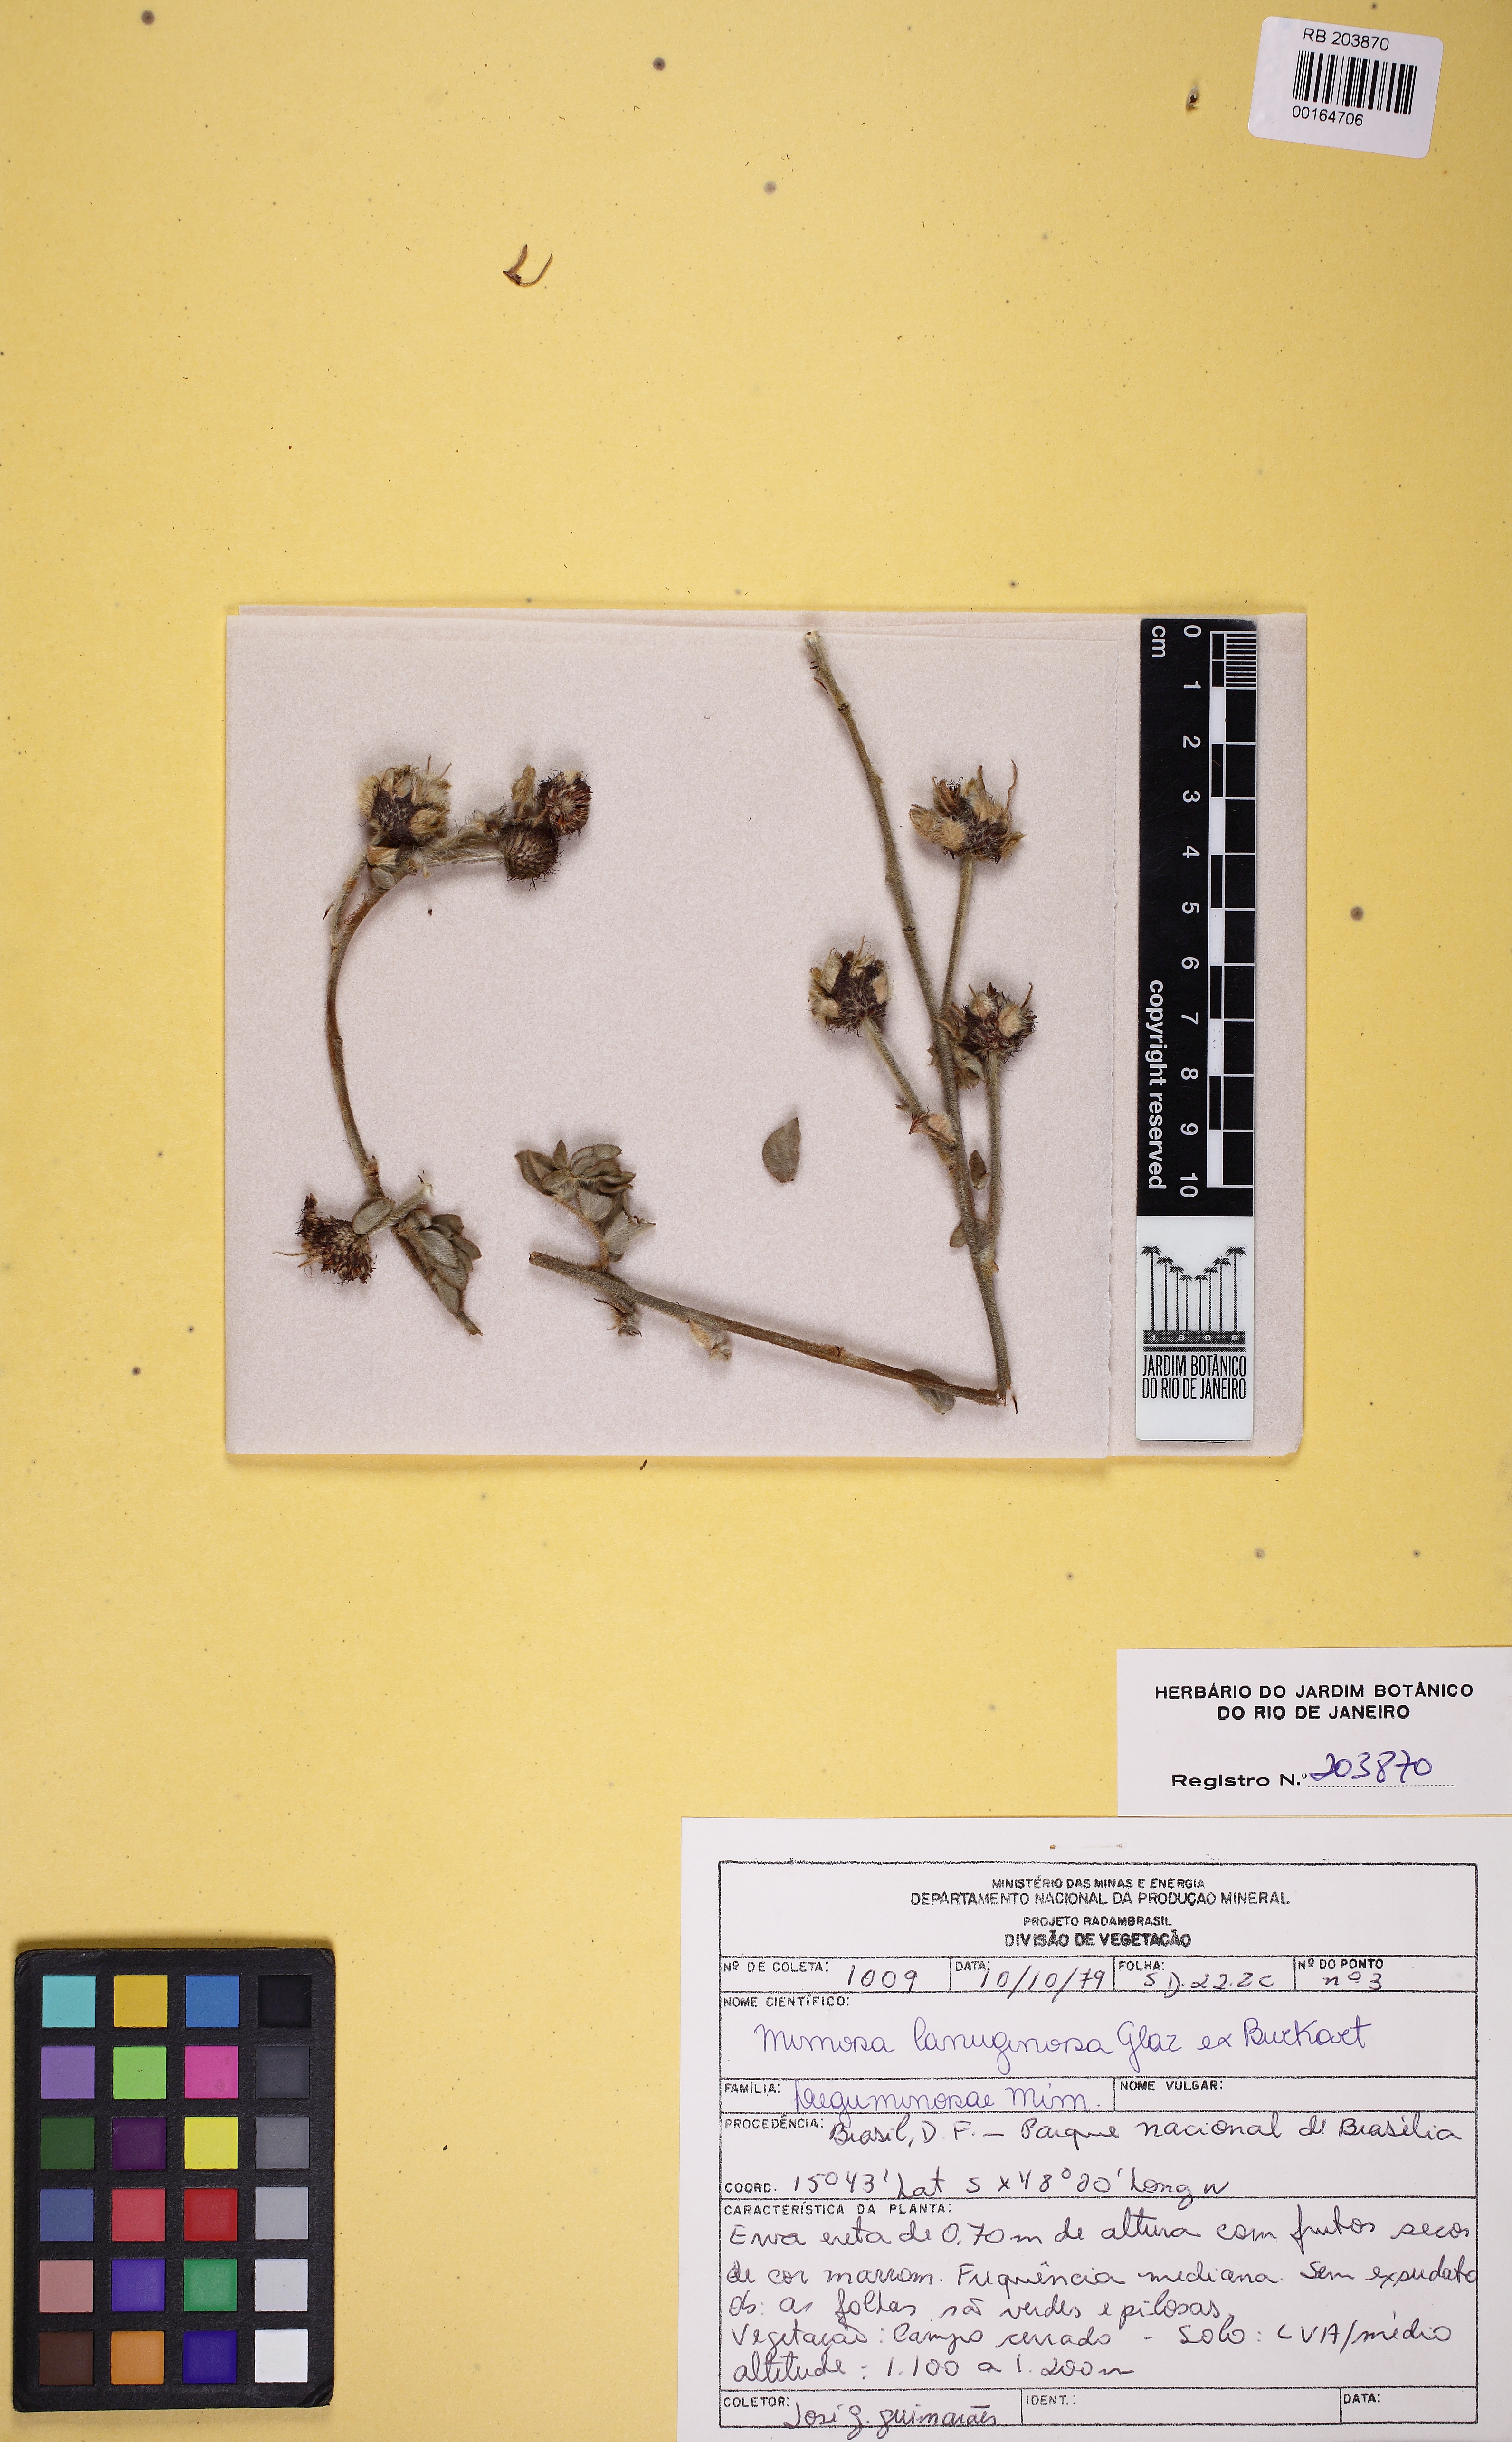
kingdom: Plantae
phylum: Tracheophyta
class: Magnoliopsida
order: Fabales
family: Fabaceae
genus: Mimosa
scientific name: Mimosa lanuginosa
